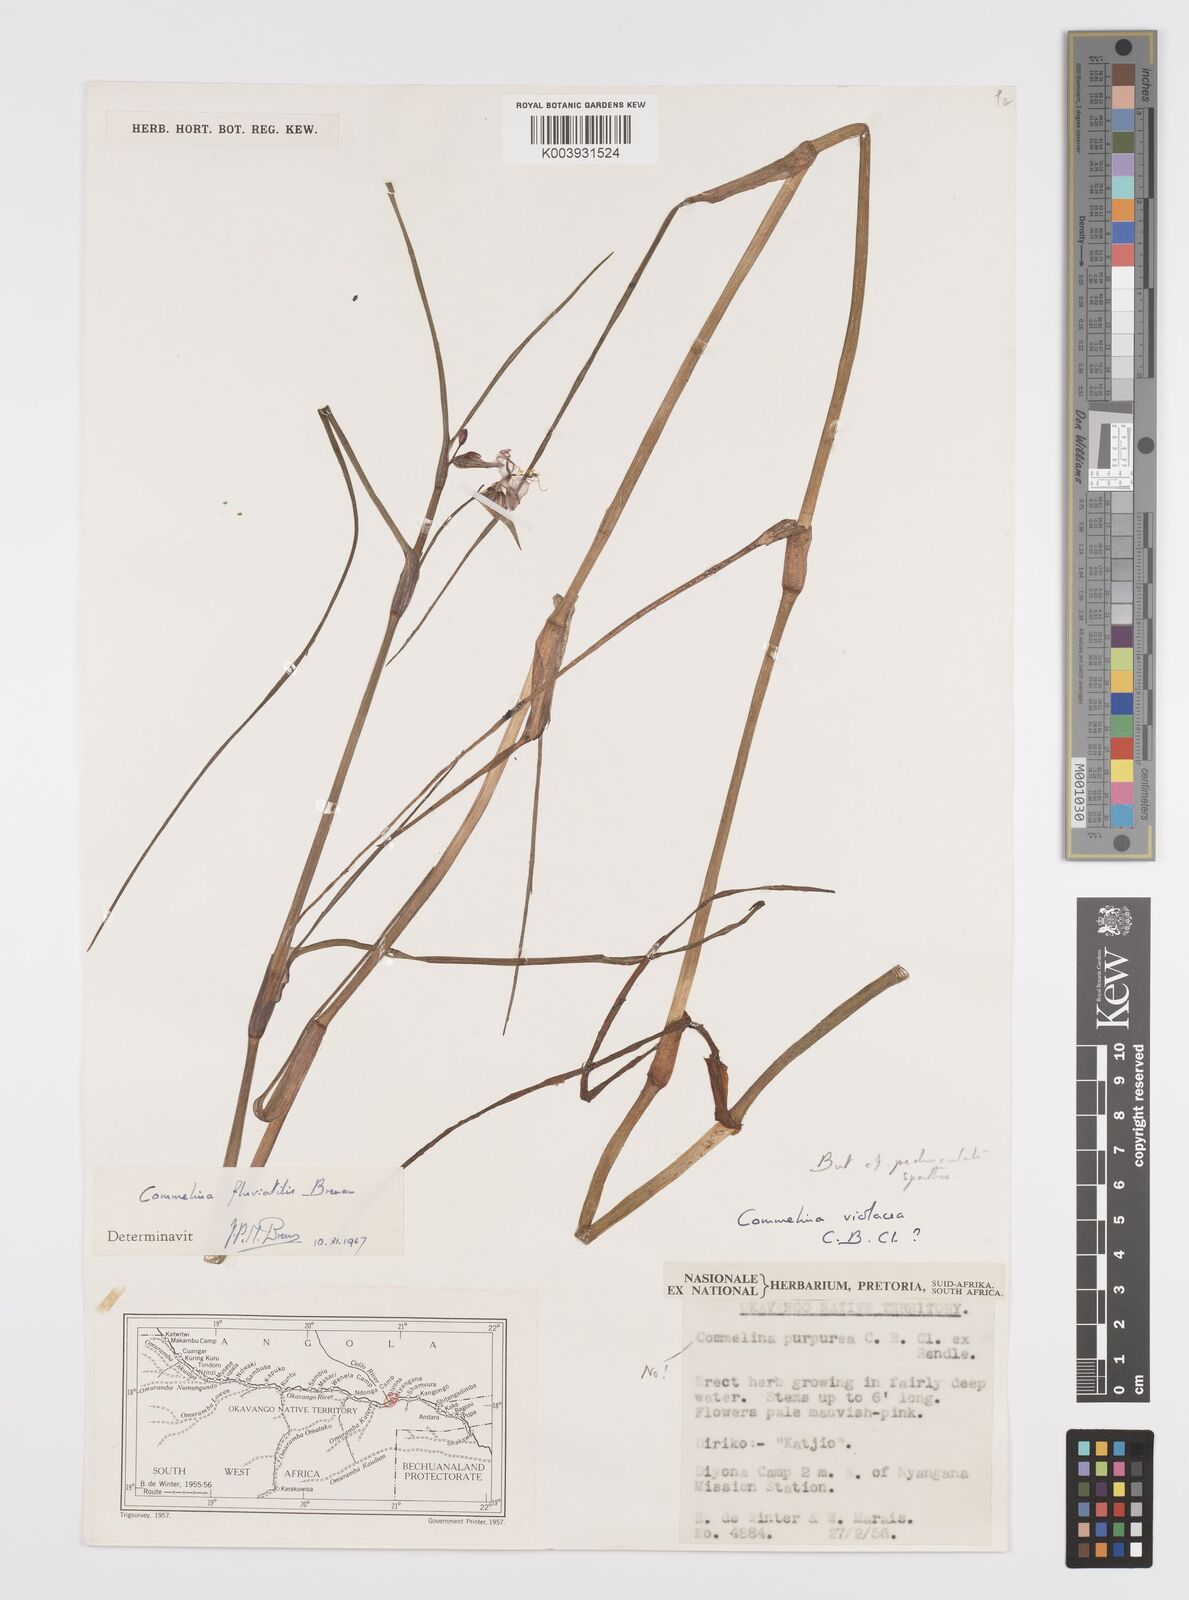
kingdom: Plantae
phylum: Tracheophyta
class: Liliopsida
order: Commelinales
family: Commelinaceae
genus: Commelina
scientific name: Commelina fluviatilis
